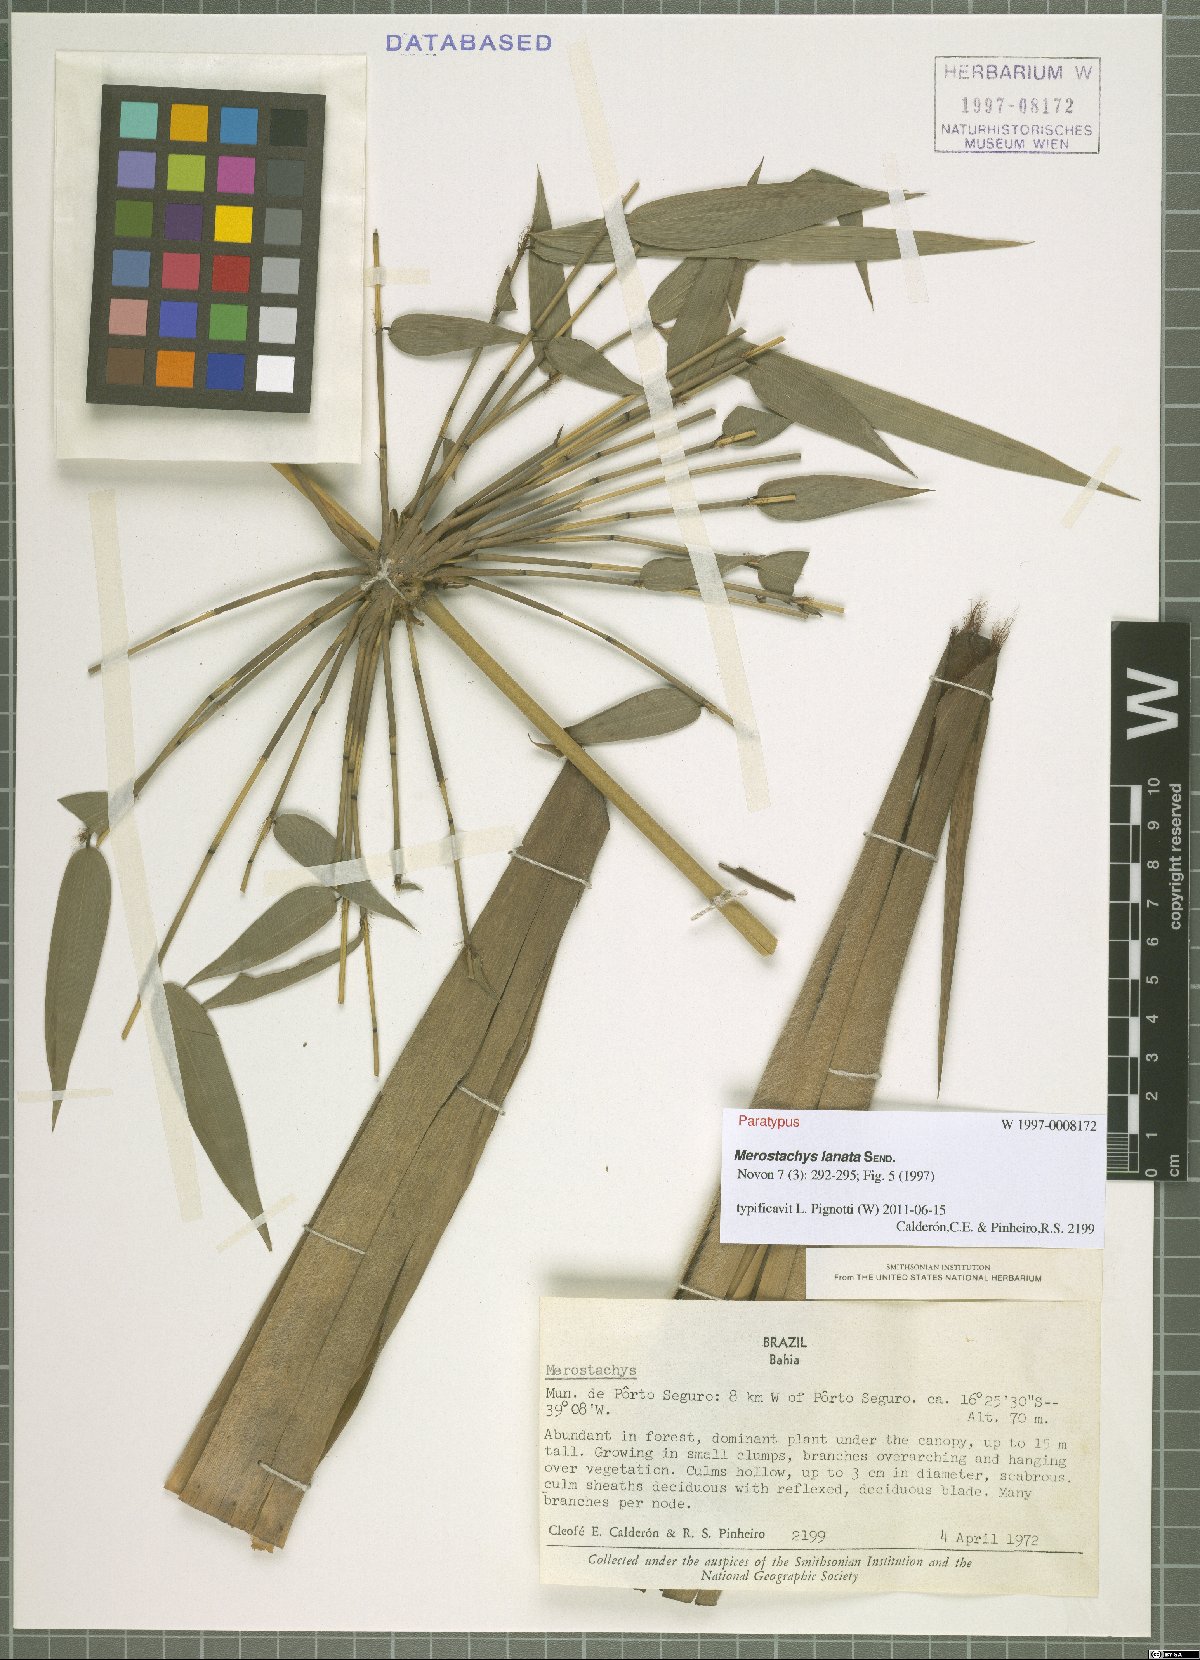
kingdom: Plantae
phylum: Tracheophyta
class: Liliopsida
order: Poales
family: Poaceae
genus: Merostachys
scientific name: Merostachys lanata
